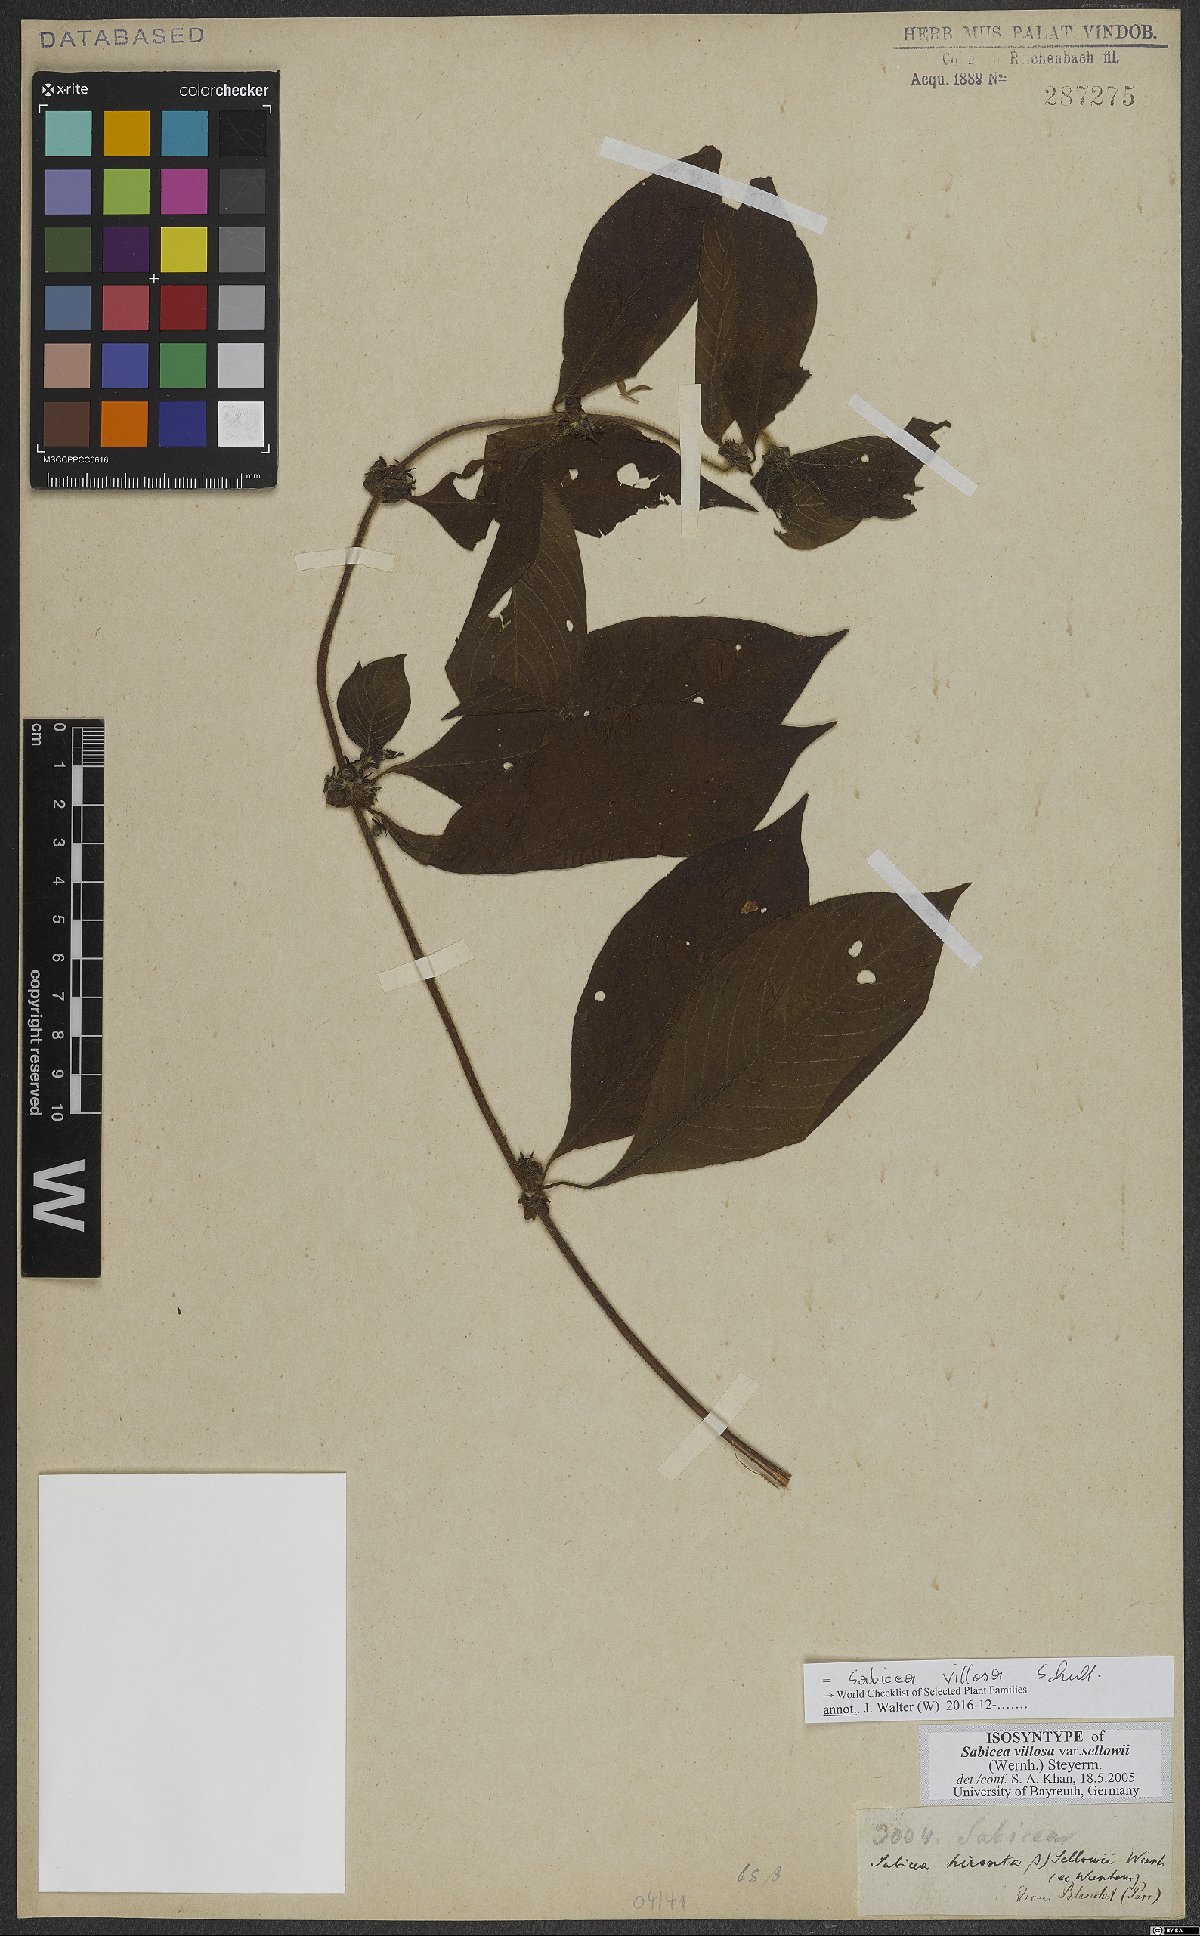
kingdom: Plantae
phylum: Tracheophyta
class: Magnoliopsida
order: Gentianales
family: Rubiaceae
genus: Sabicea
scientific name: Sabicea villosa
